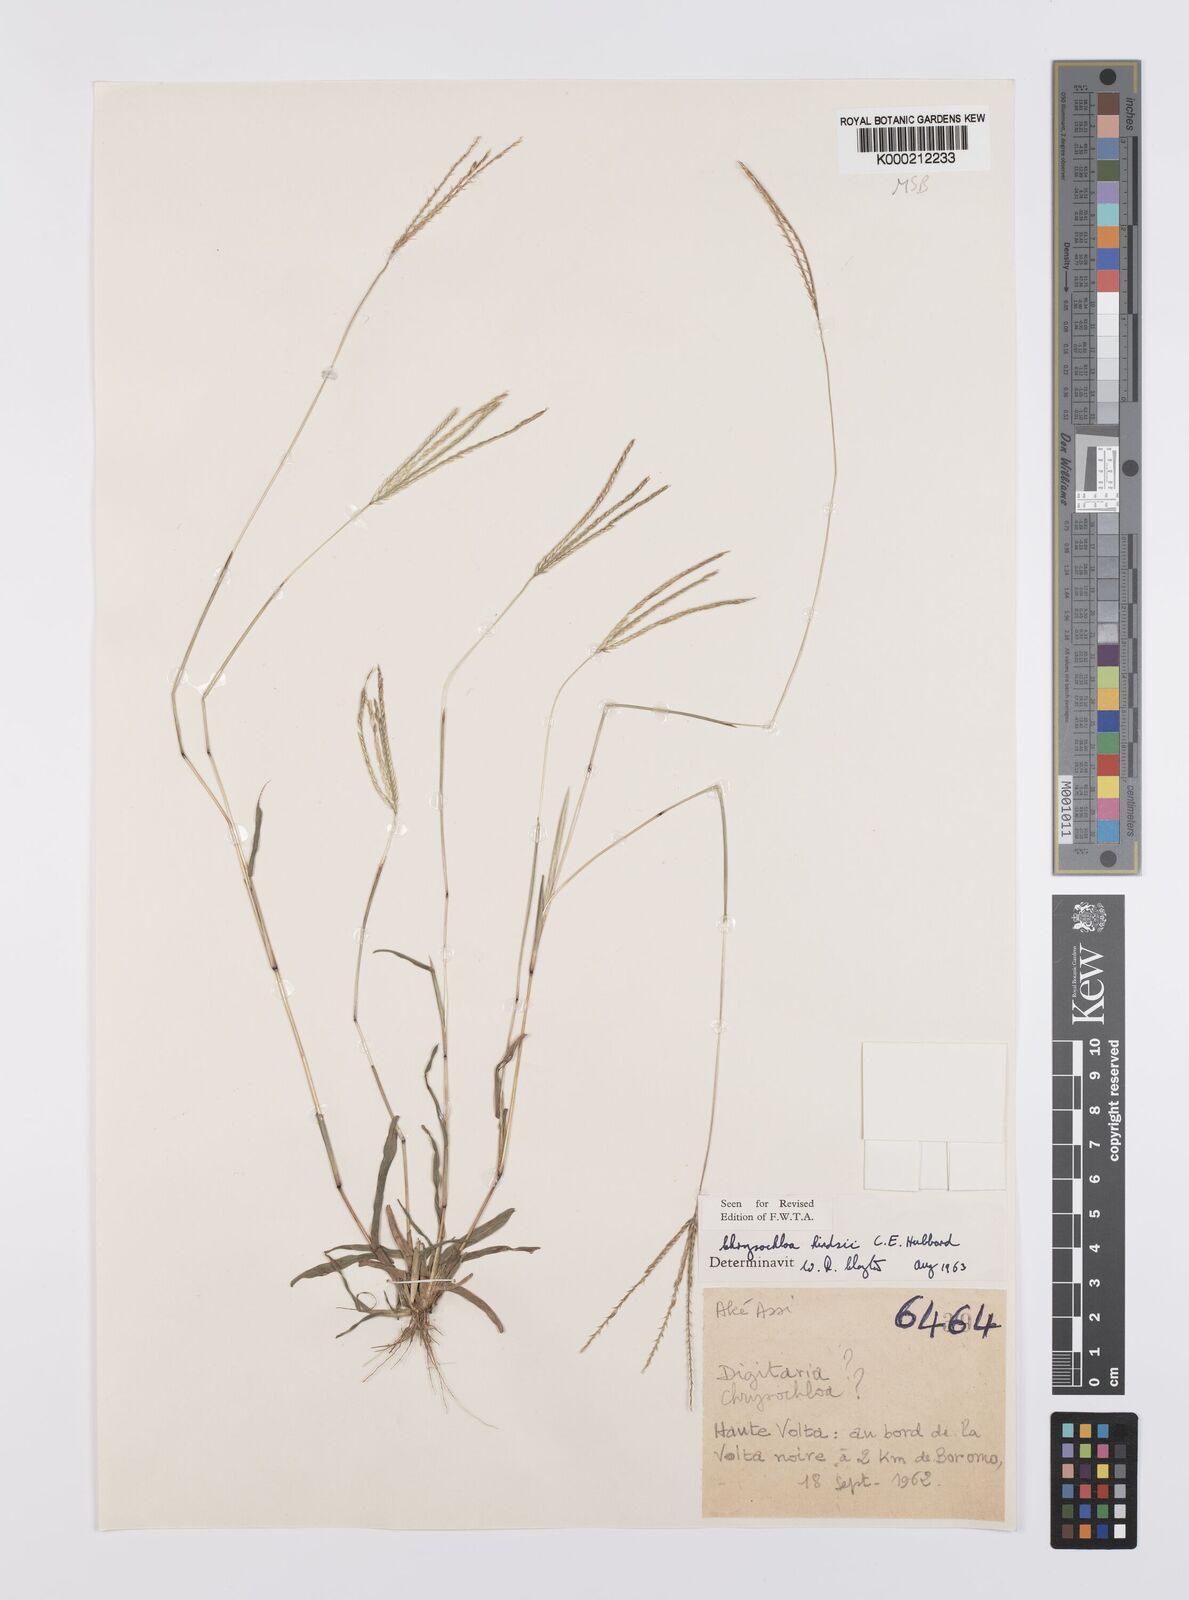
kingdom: Plantae
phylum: Tracheophyta
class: Liliopsida
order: Poales
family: Poaceae
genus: Chrysochloa
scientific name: Chrysochloa hindsii
